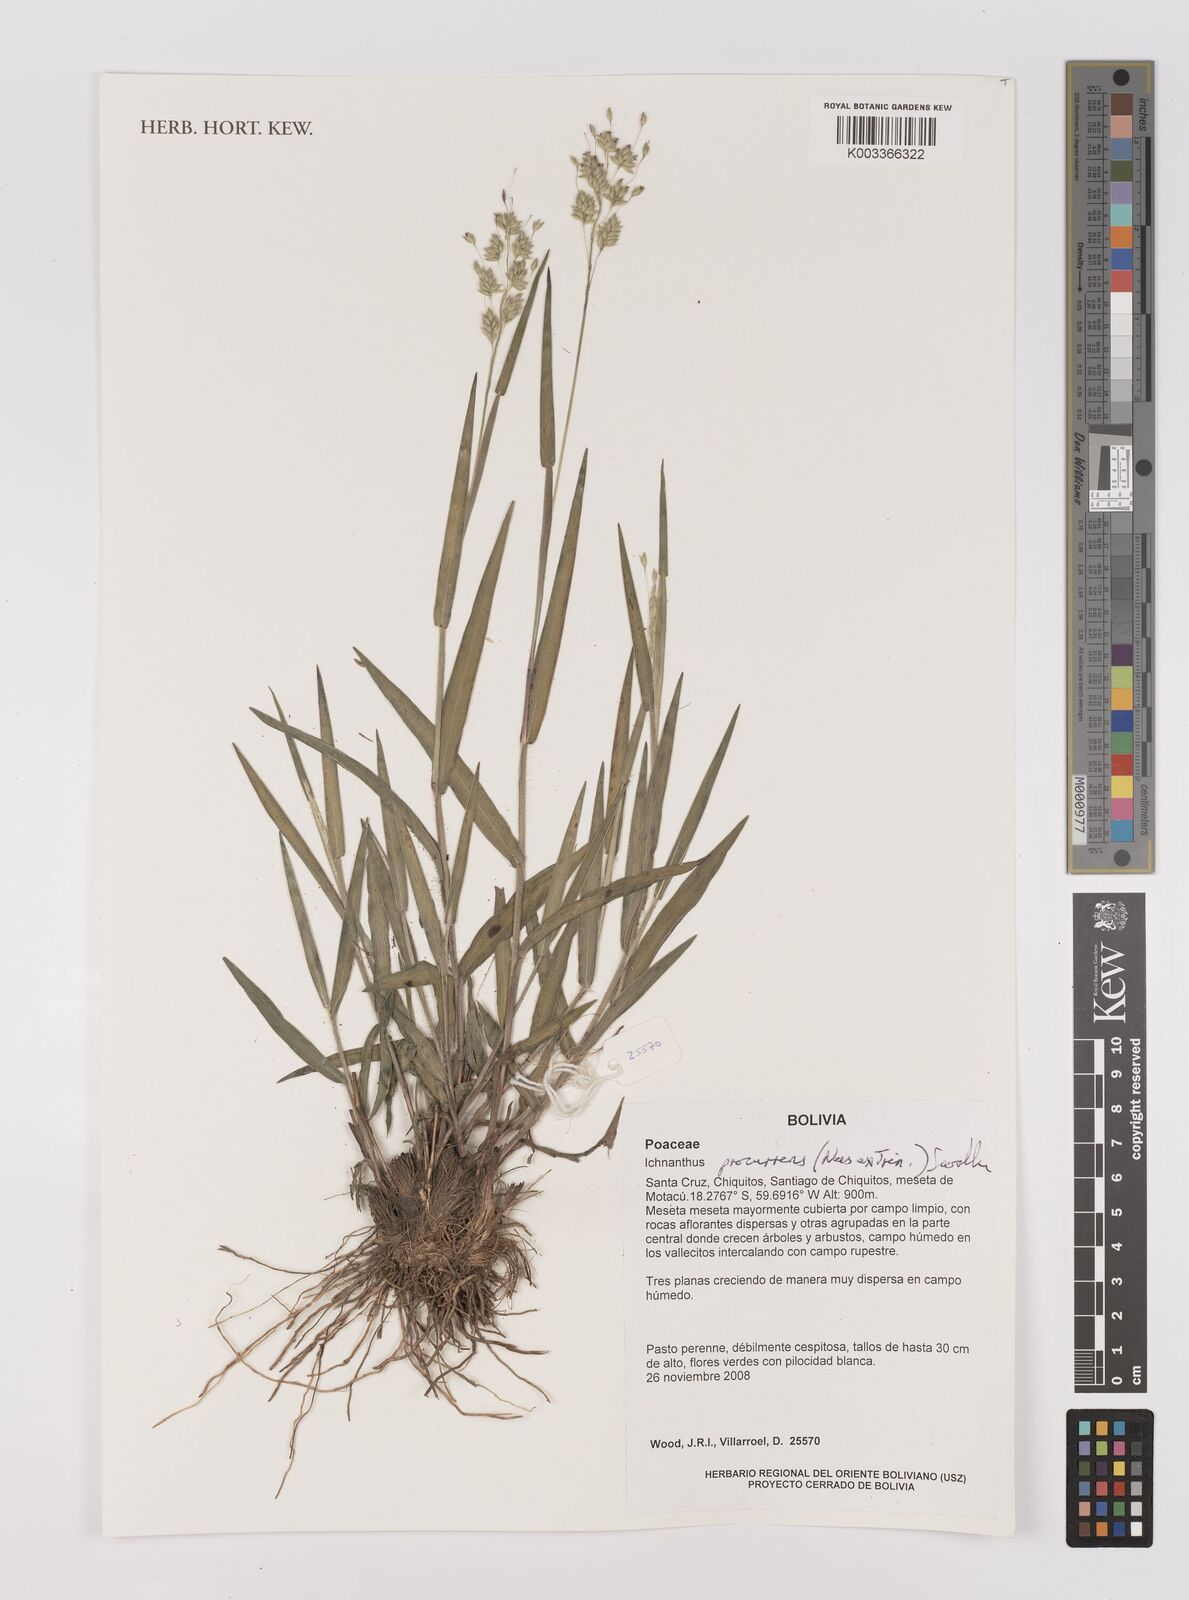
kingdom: Plantae
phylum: Tracheophyta
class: Liliopsida
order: Poales
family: Poaceae
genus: Oedochloa
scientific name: Oedochloa procurrens
